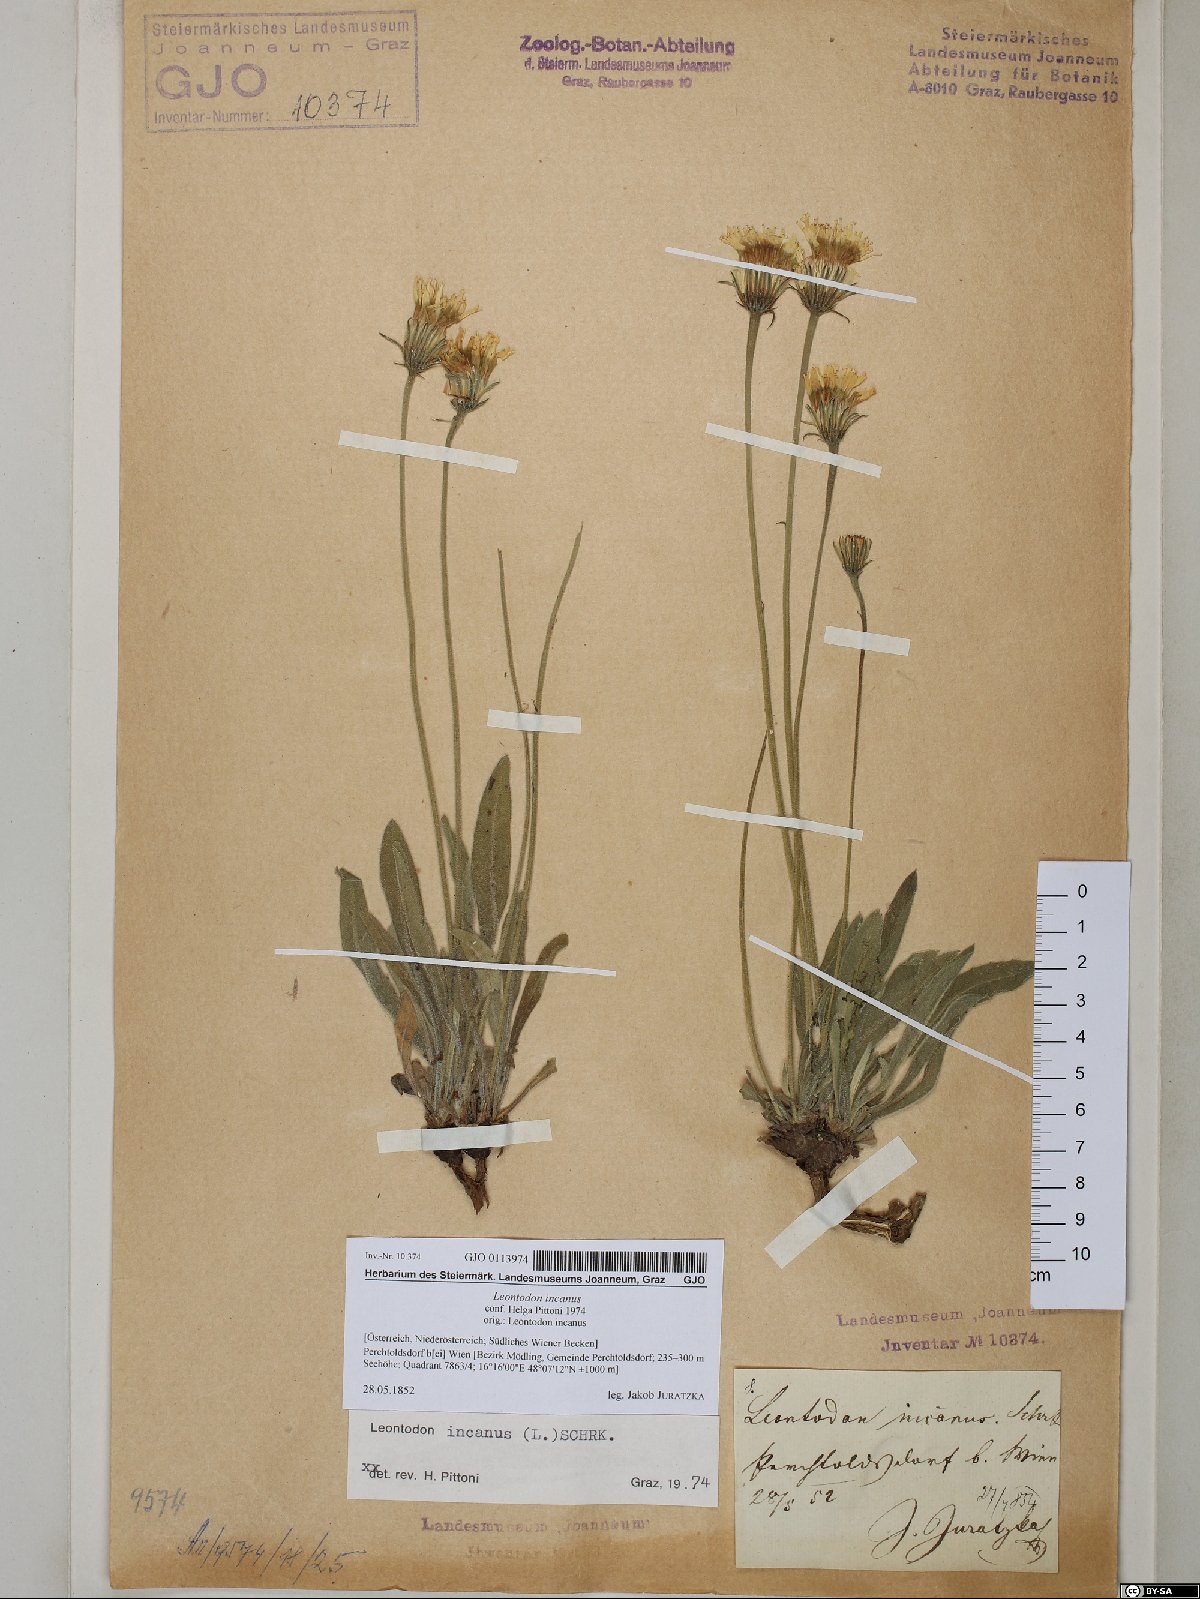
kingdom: Plantae
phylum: Tracheophyta
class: Magnoliopsida
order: Asterales
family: Asteraceae
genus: Leontodon
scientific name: Leontodon incanus
